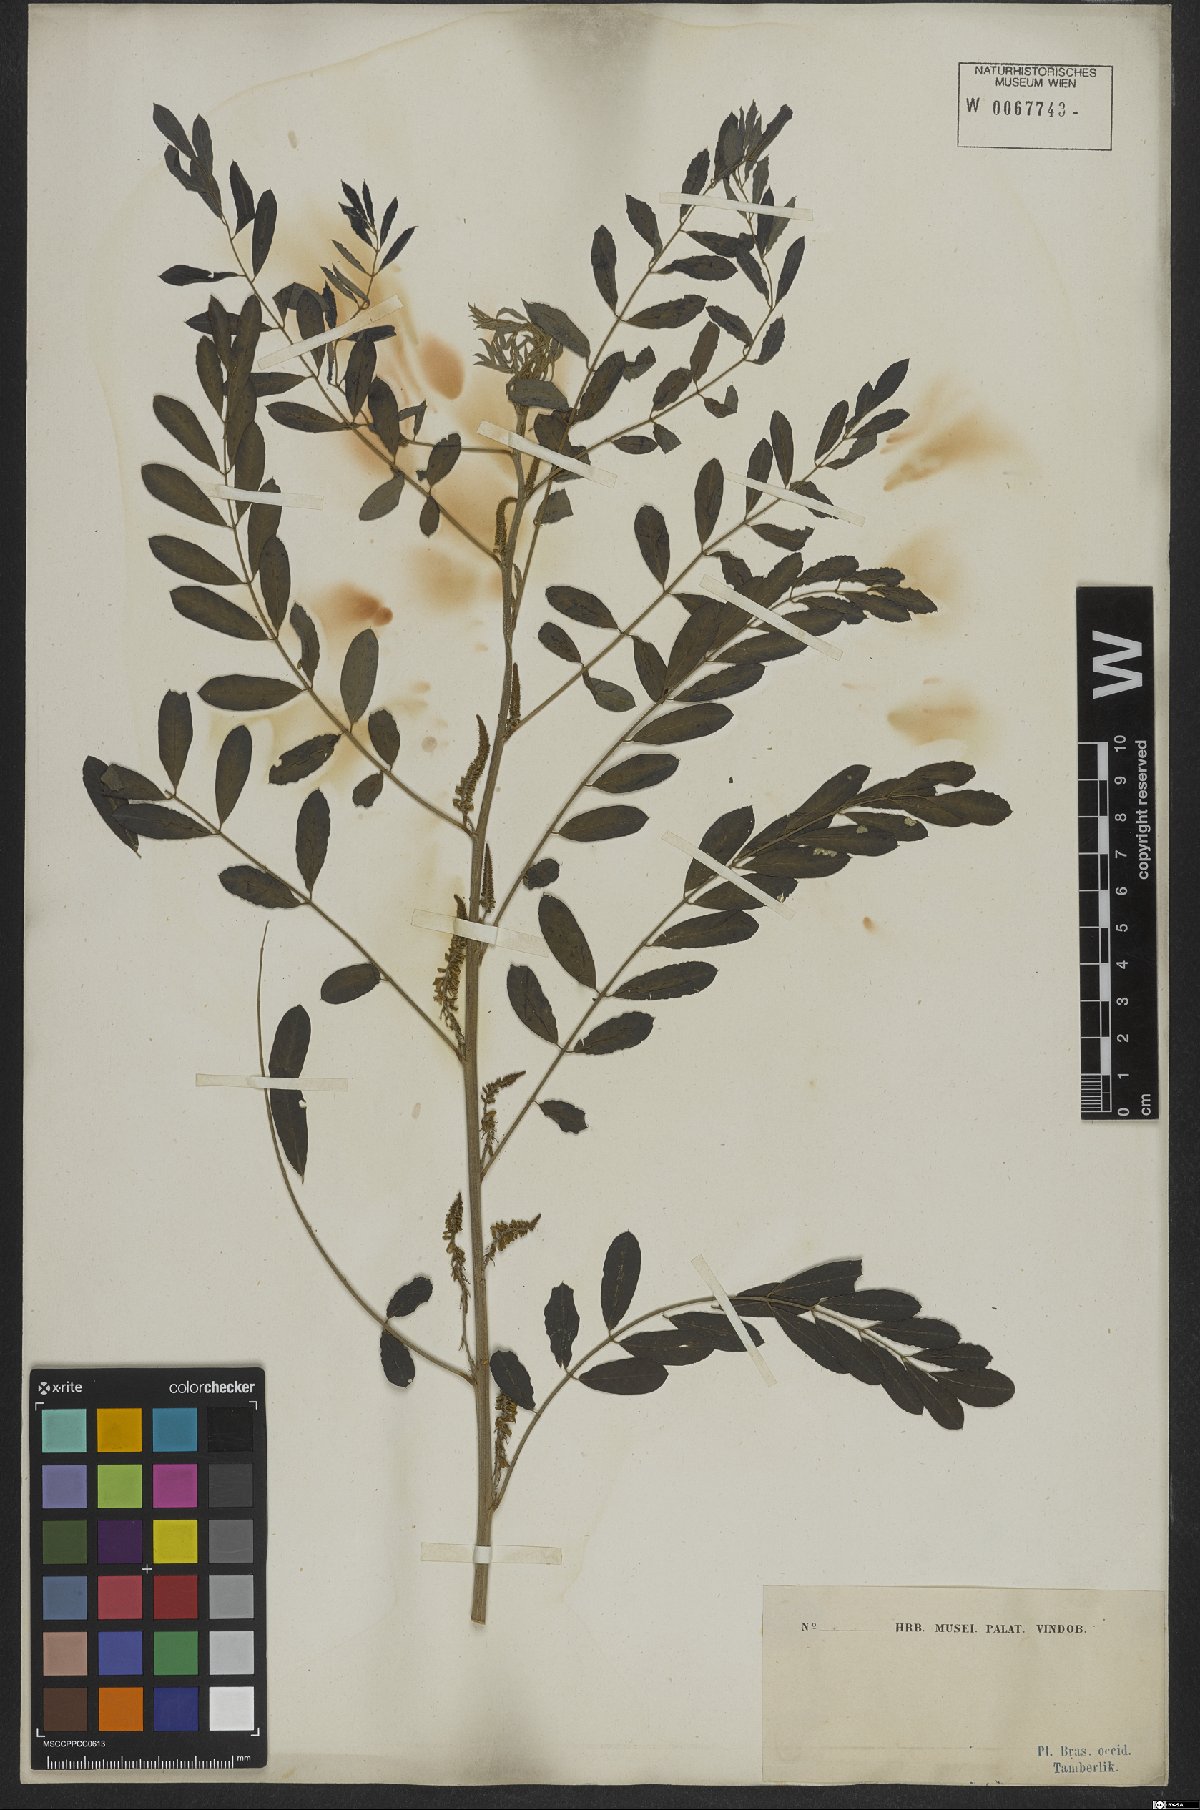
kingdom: Plantae
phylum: Tracheophyta
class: Magnoliopsida
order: Fabales
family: Fabaceae
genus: Indigofera
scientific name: Indigofera tinctoria
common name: True indigo
